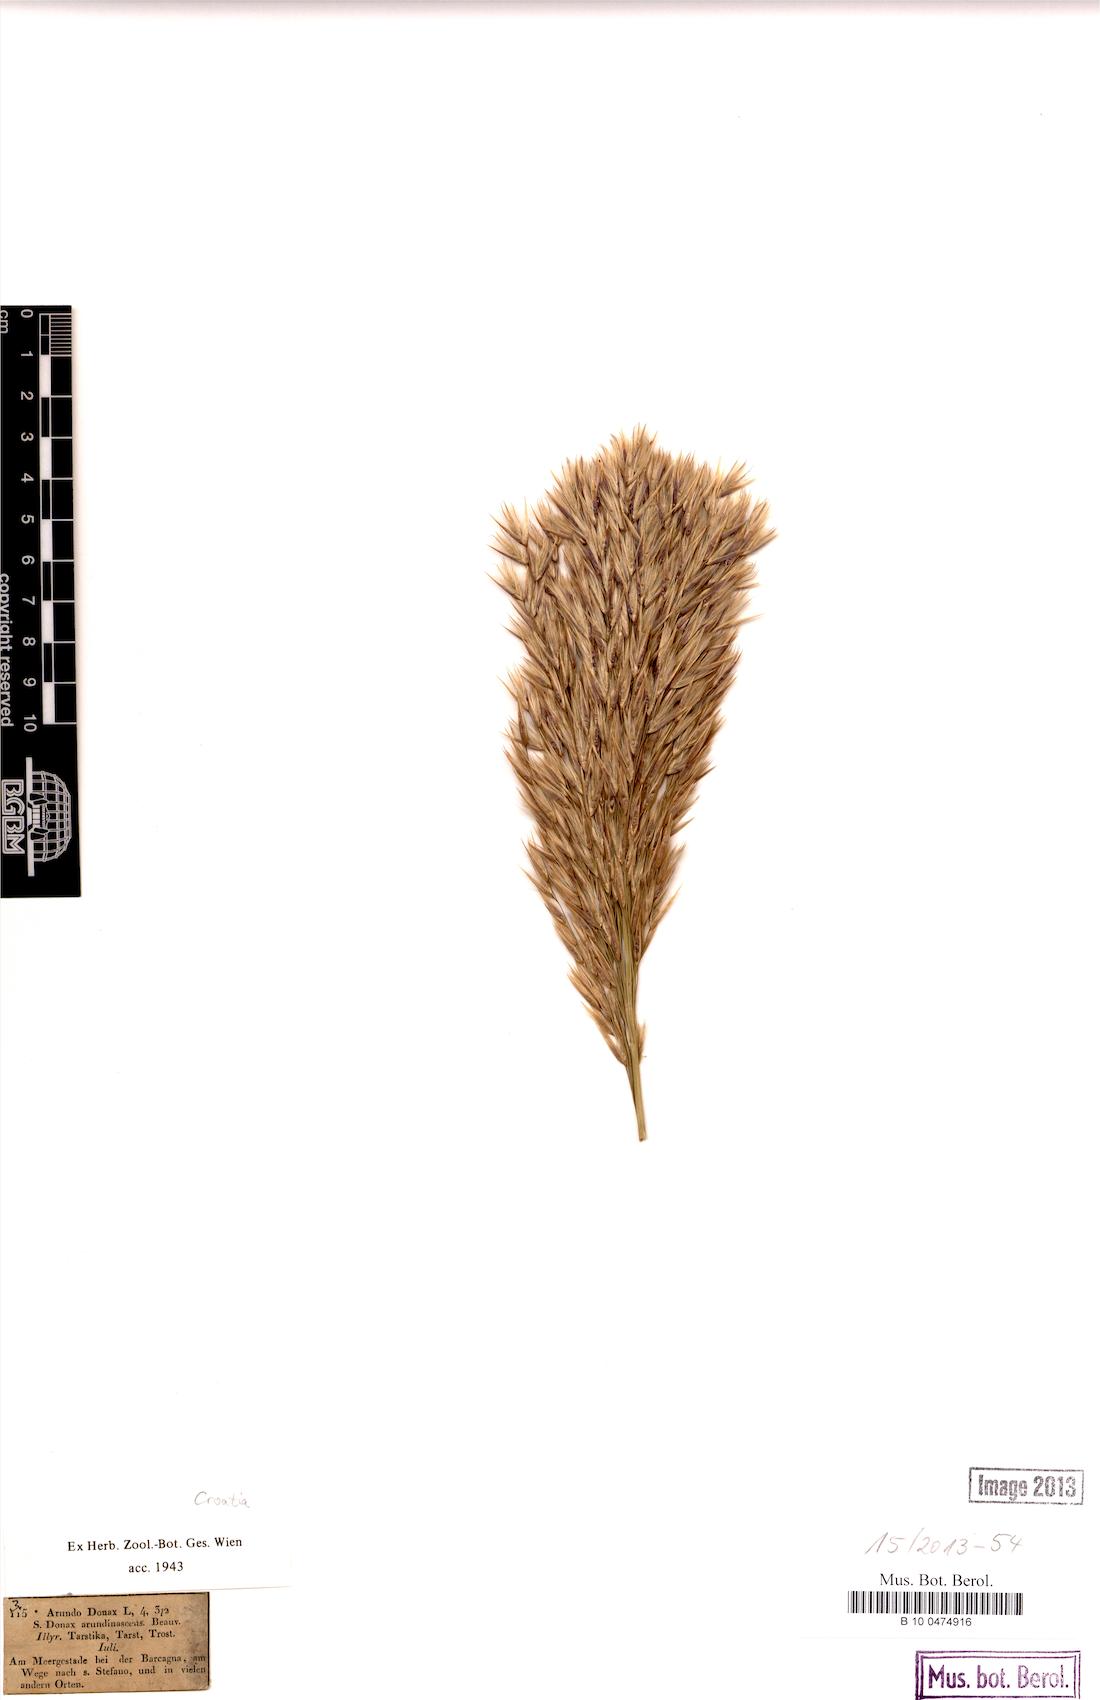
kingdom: Plantae
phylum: Tracheophyta
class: Liliopsida
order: Poales
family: Poaceae
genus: Arundo
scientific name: Arundo donax
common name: Giant reed
